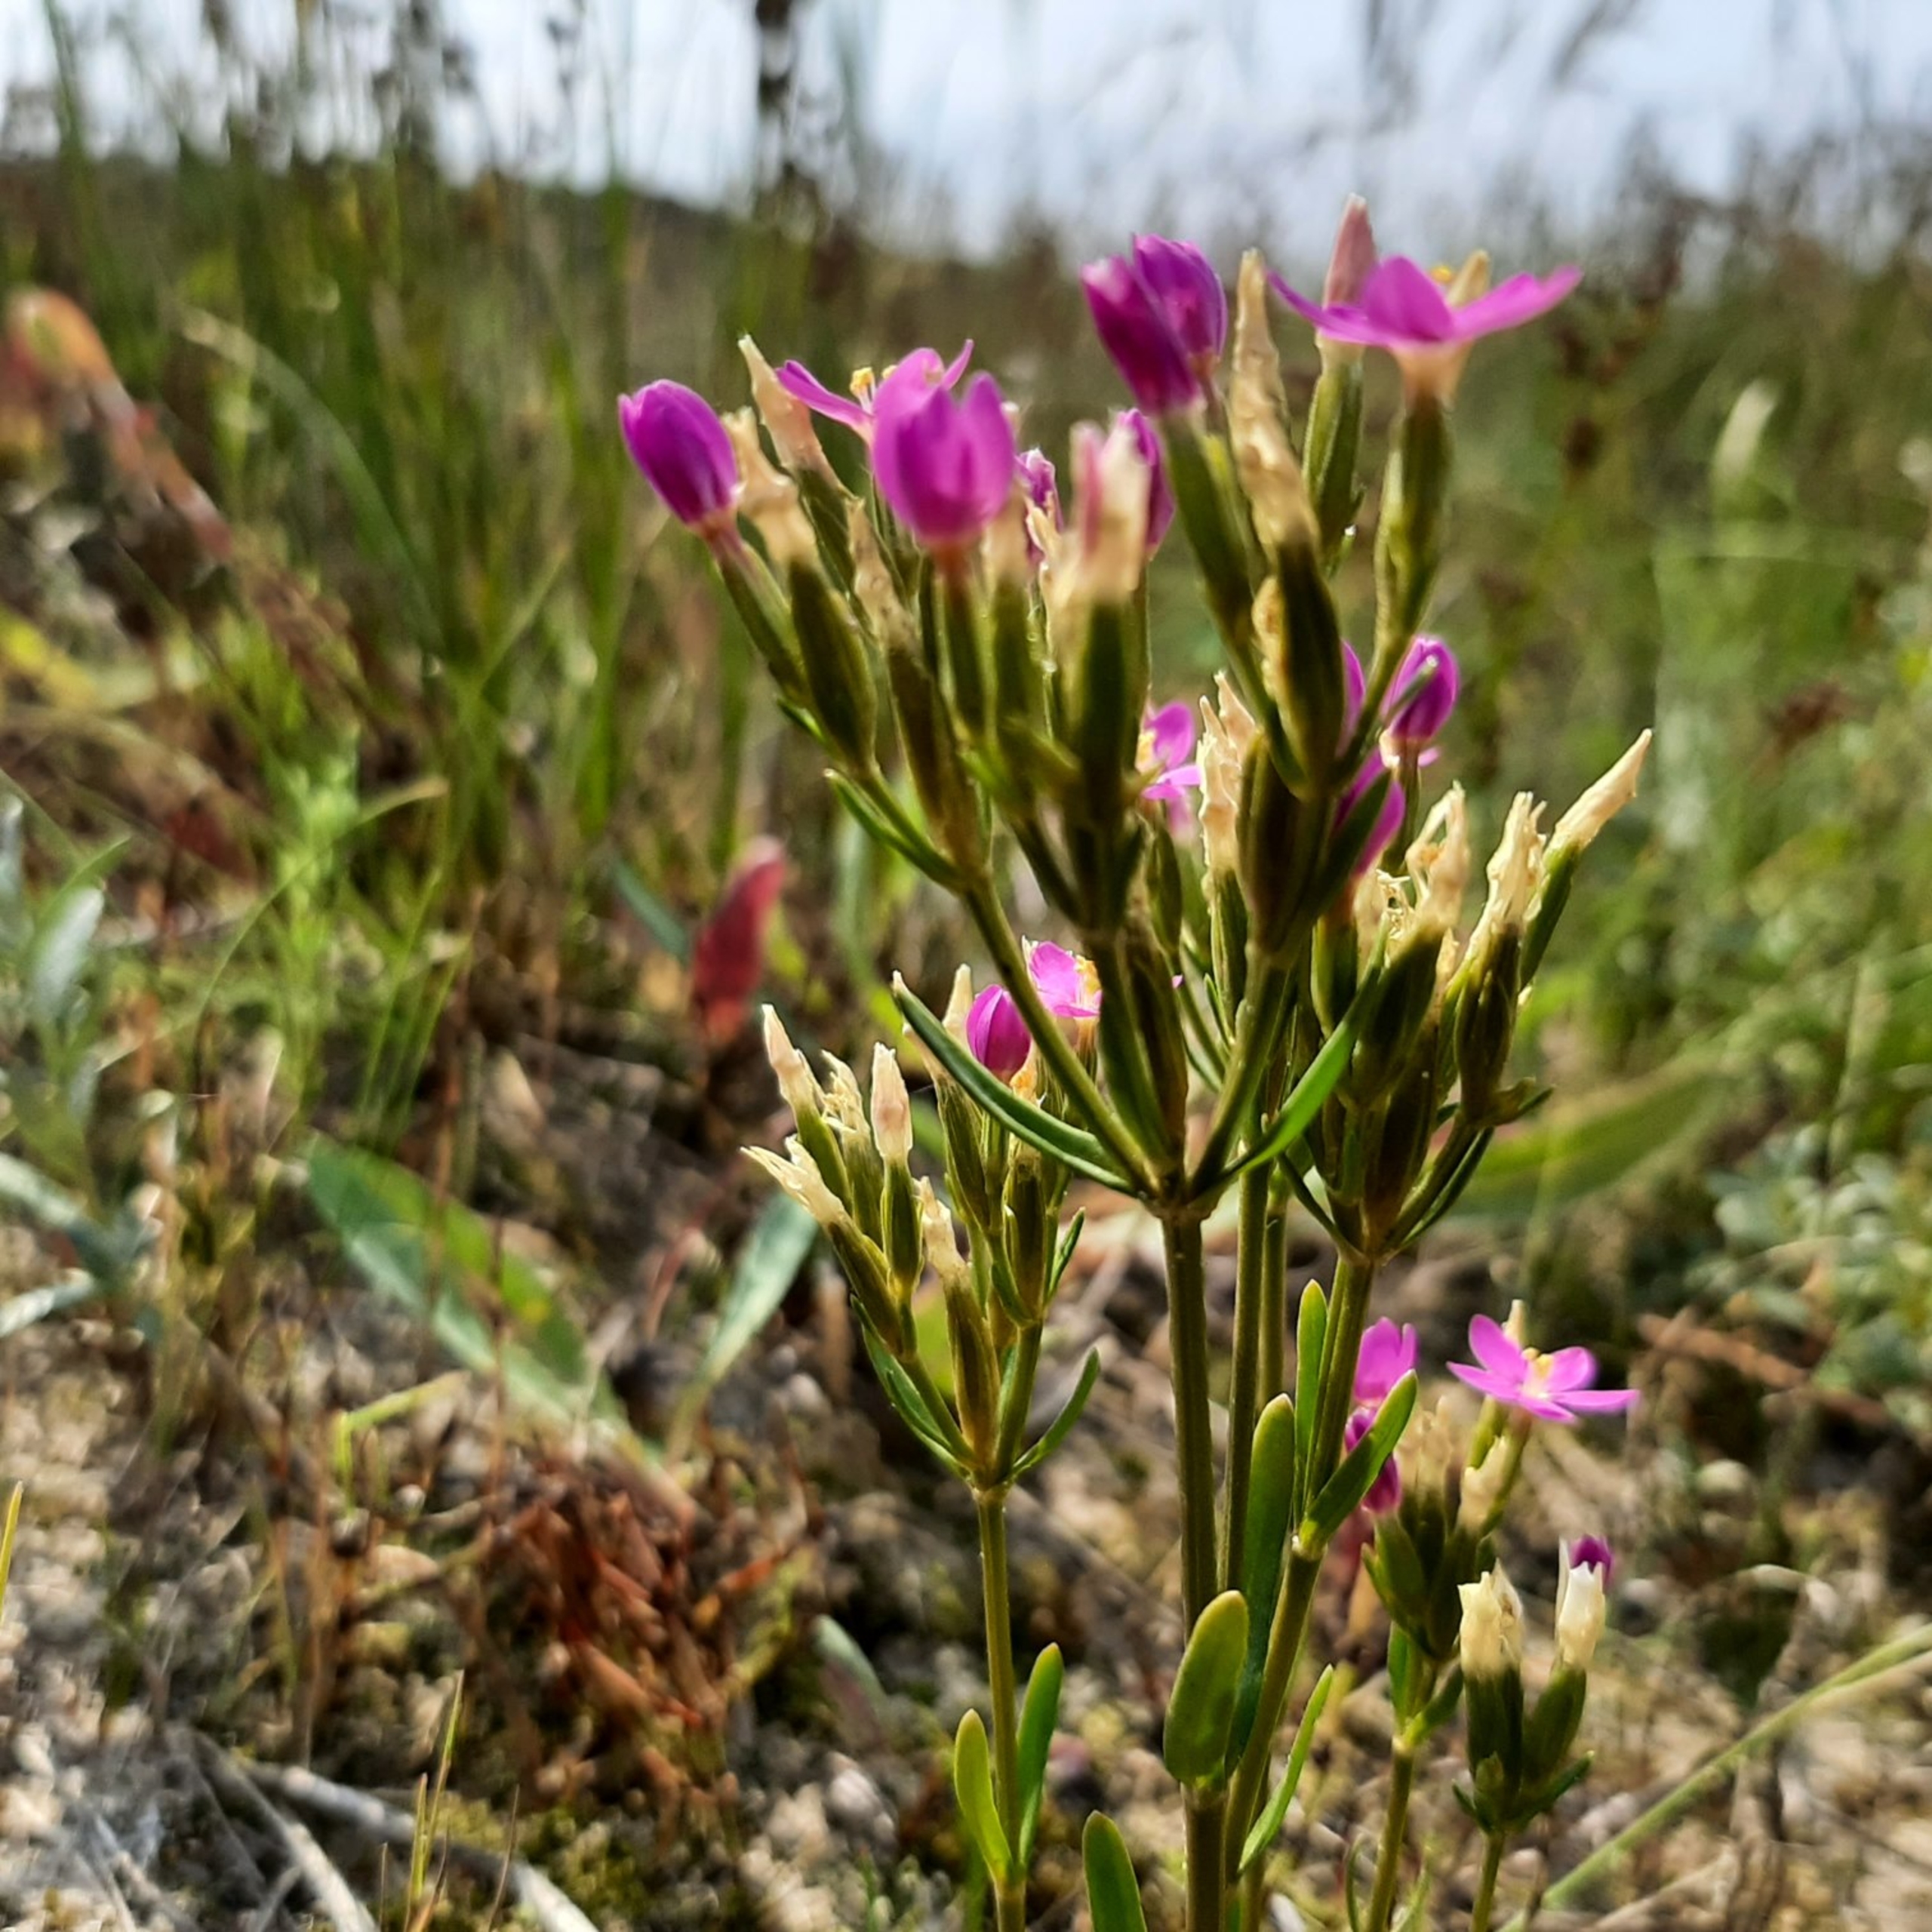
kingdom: Plantae
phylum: Tracheophyta
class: Magnoliopsida
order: Gentianales
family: Gentianaceae
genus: Centaurium
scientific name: Centaurium littorale
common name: Strand-tusindgylden
